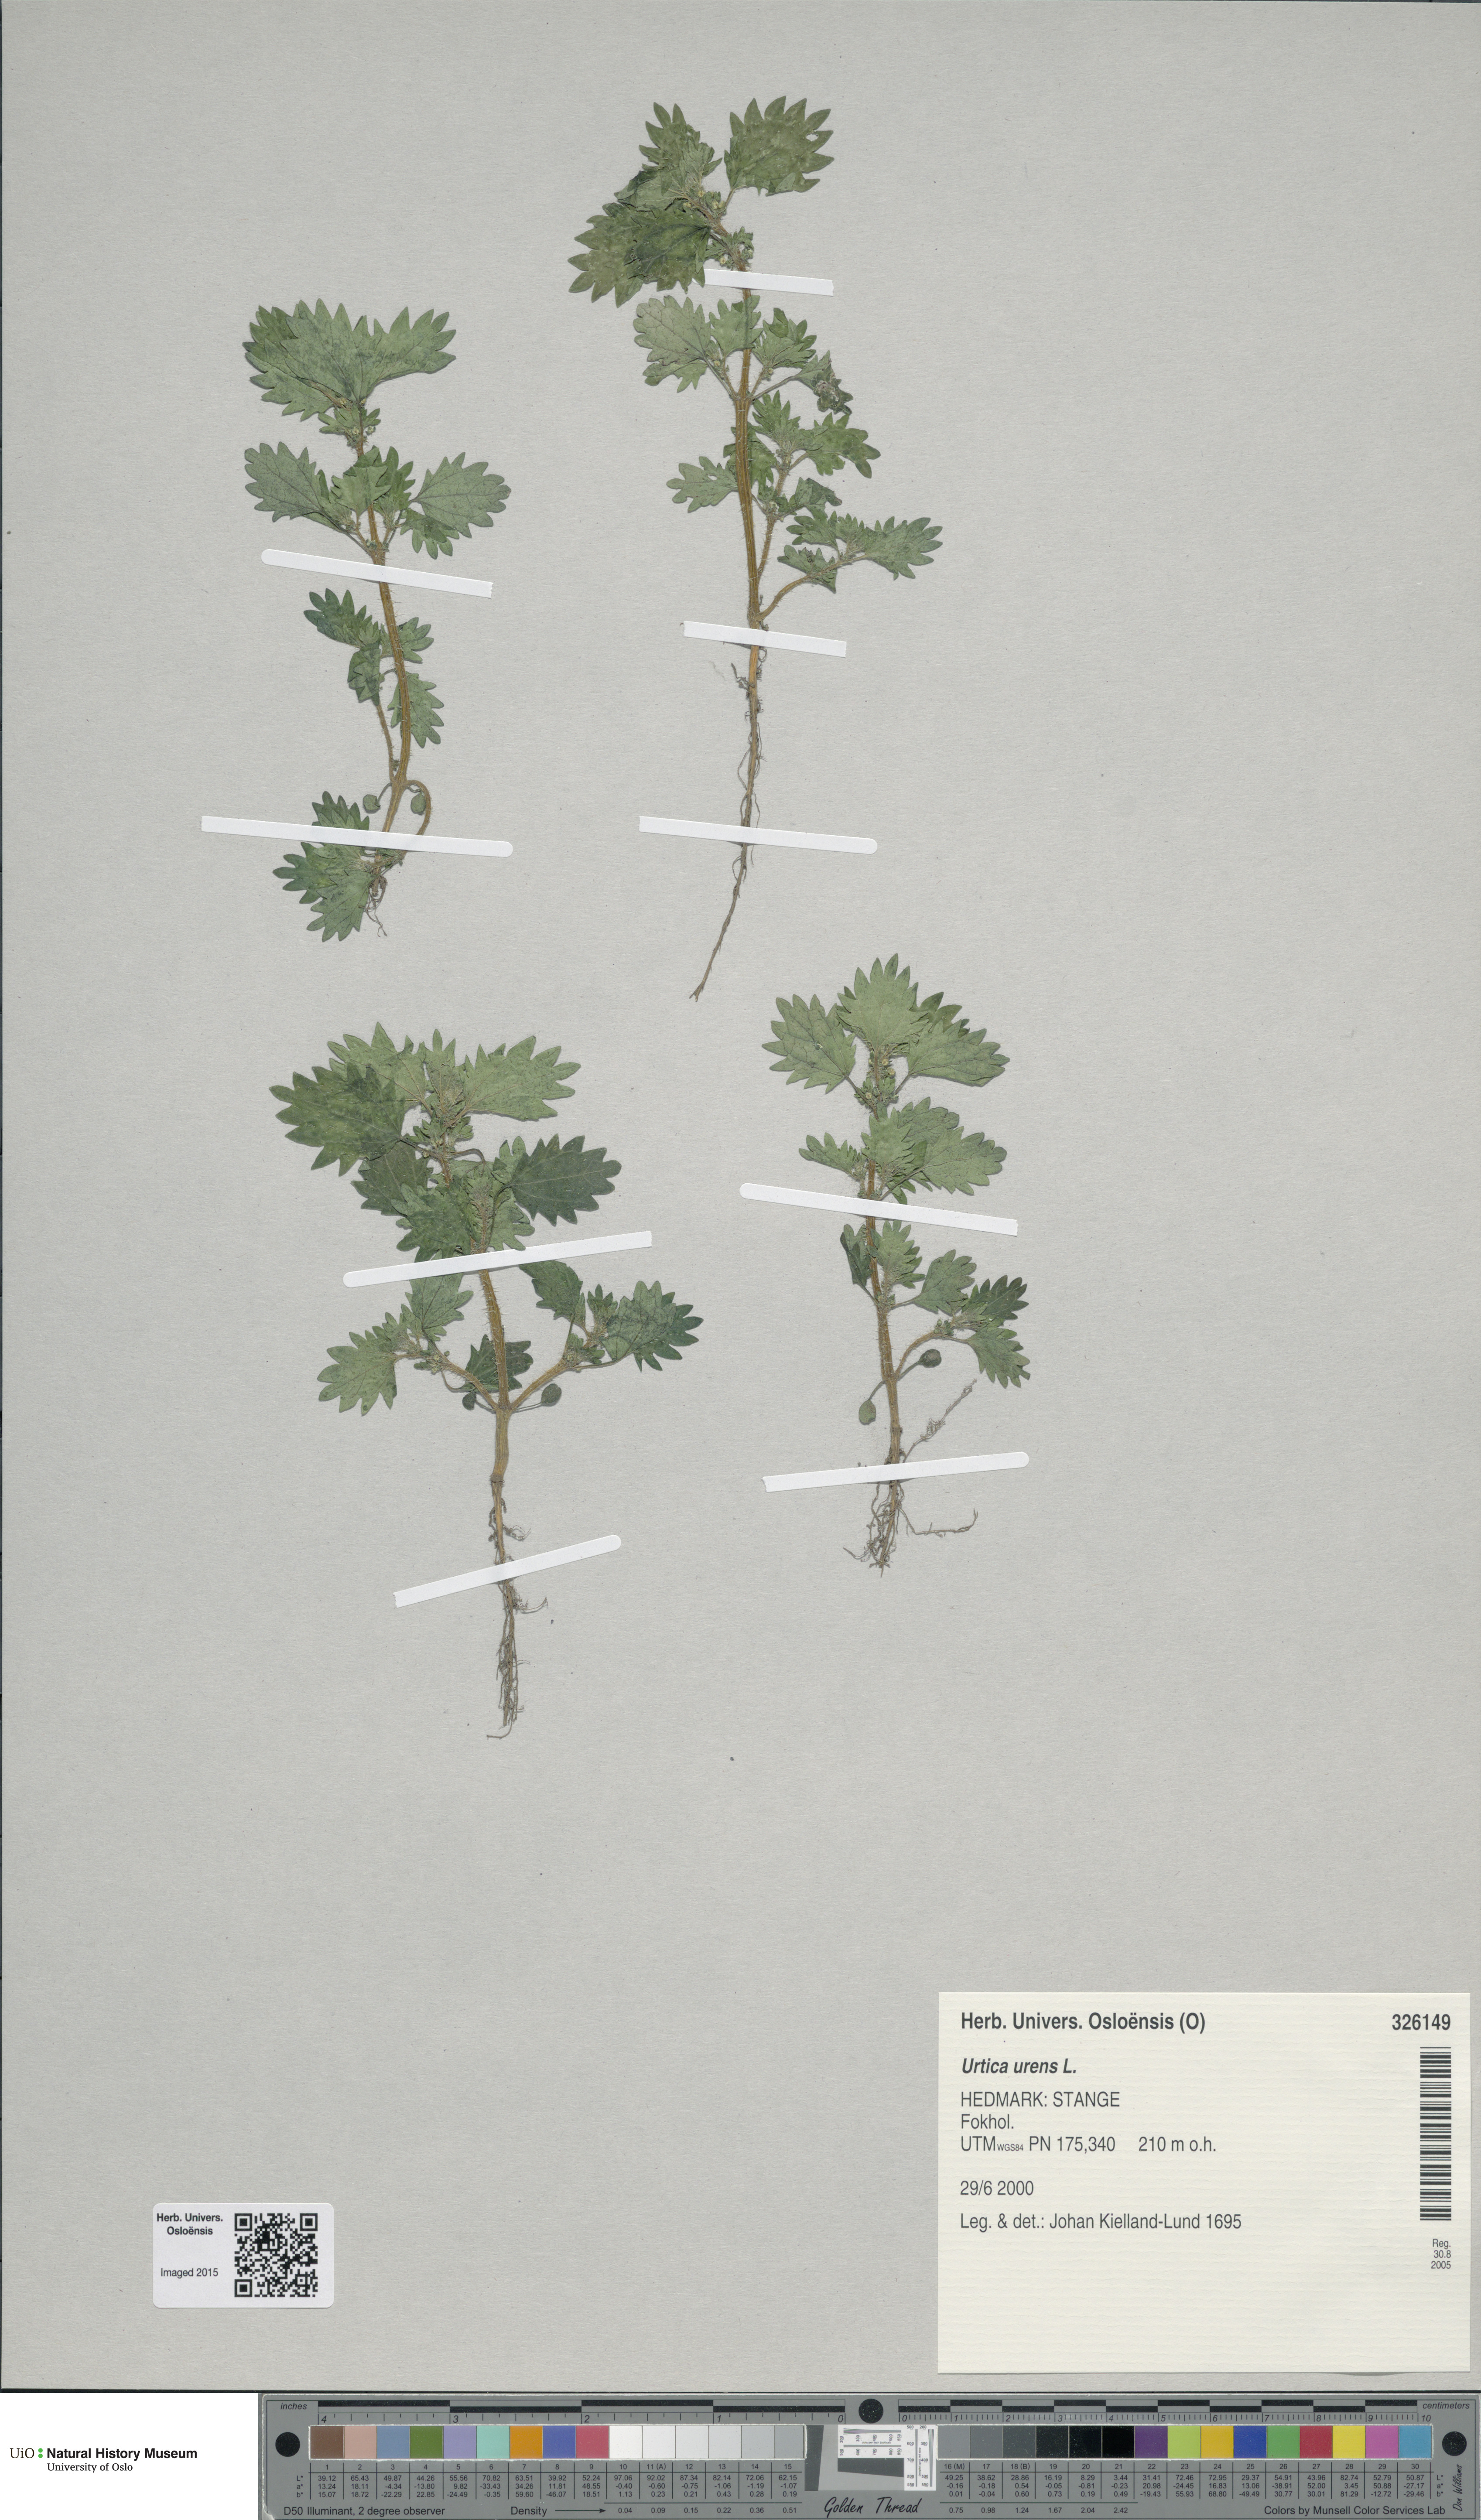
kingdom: Plantae
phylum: Tracheophyta
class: Magnoliopsida
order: Rosales
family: Urticaceae
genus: Urtica
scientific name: Urtica urens
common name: Dwarf nettle
